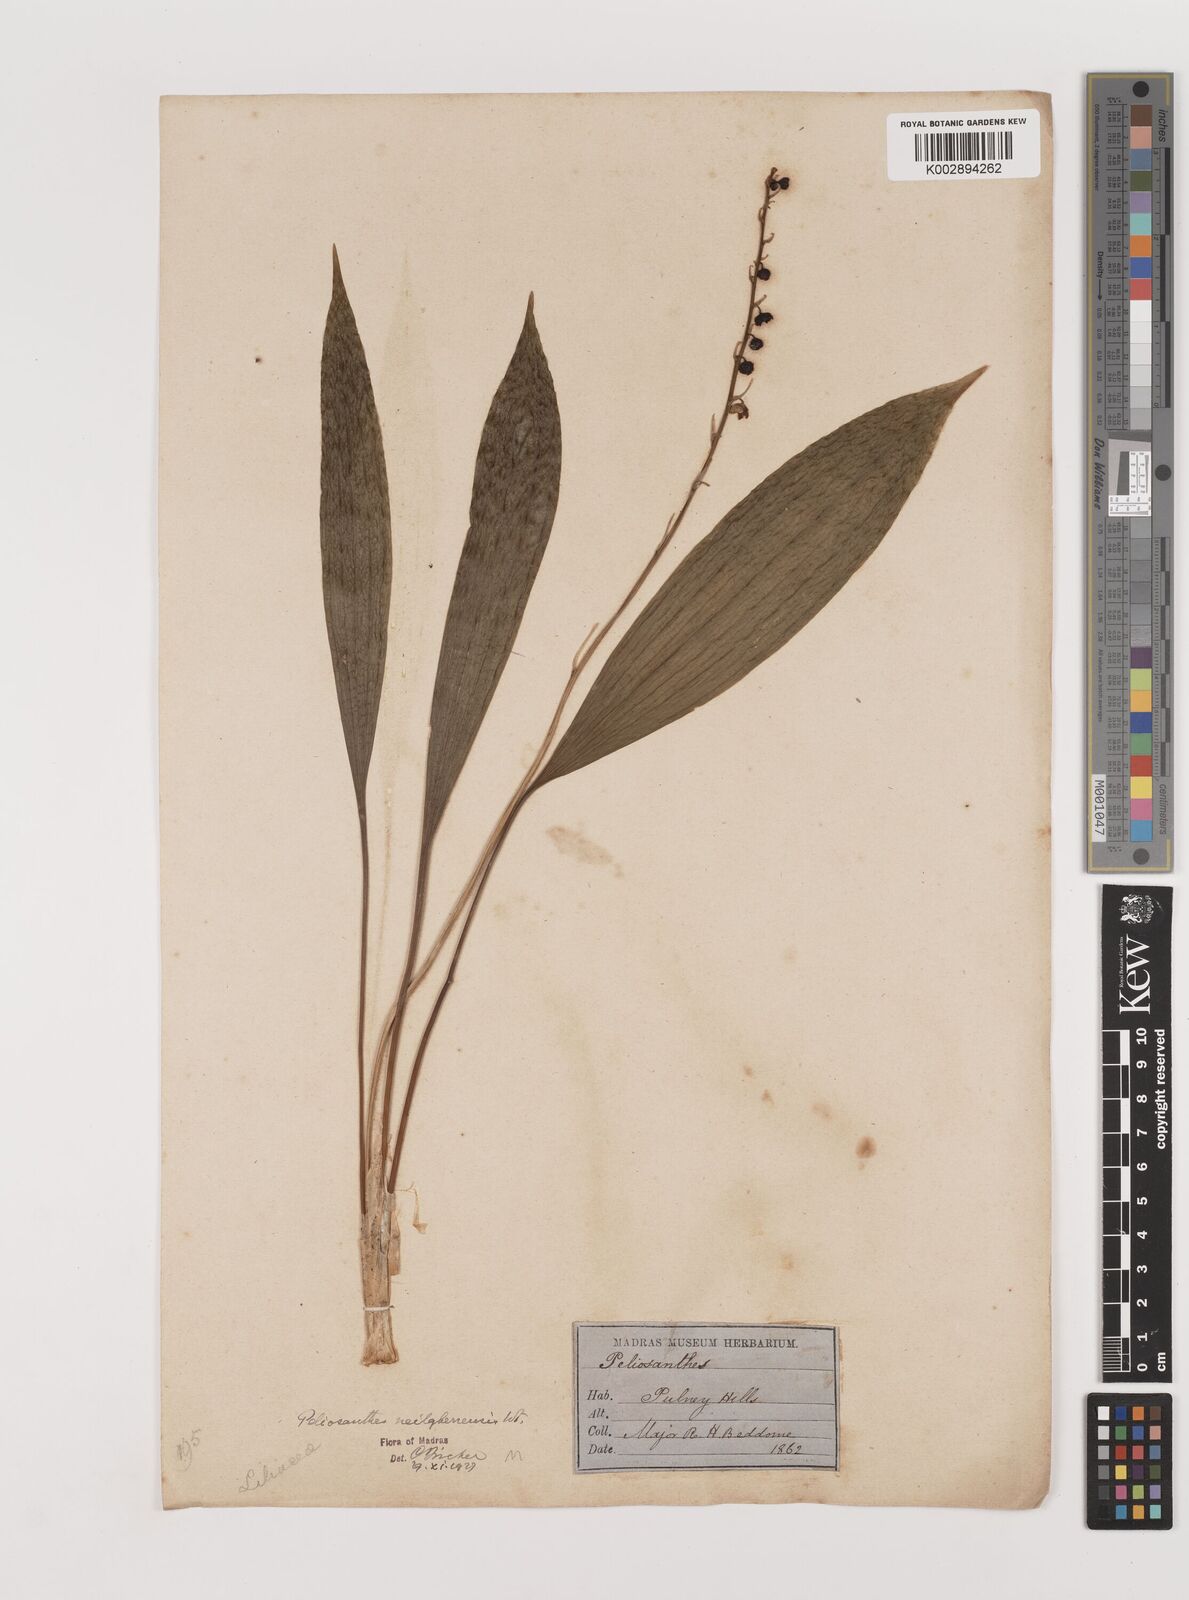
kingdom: Plantae
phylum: Tracheophyta
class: Liliopsida
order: Asparagales
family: Asparagaceae
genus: Peliosanthes
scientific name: Peliosanthes teta
